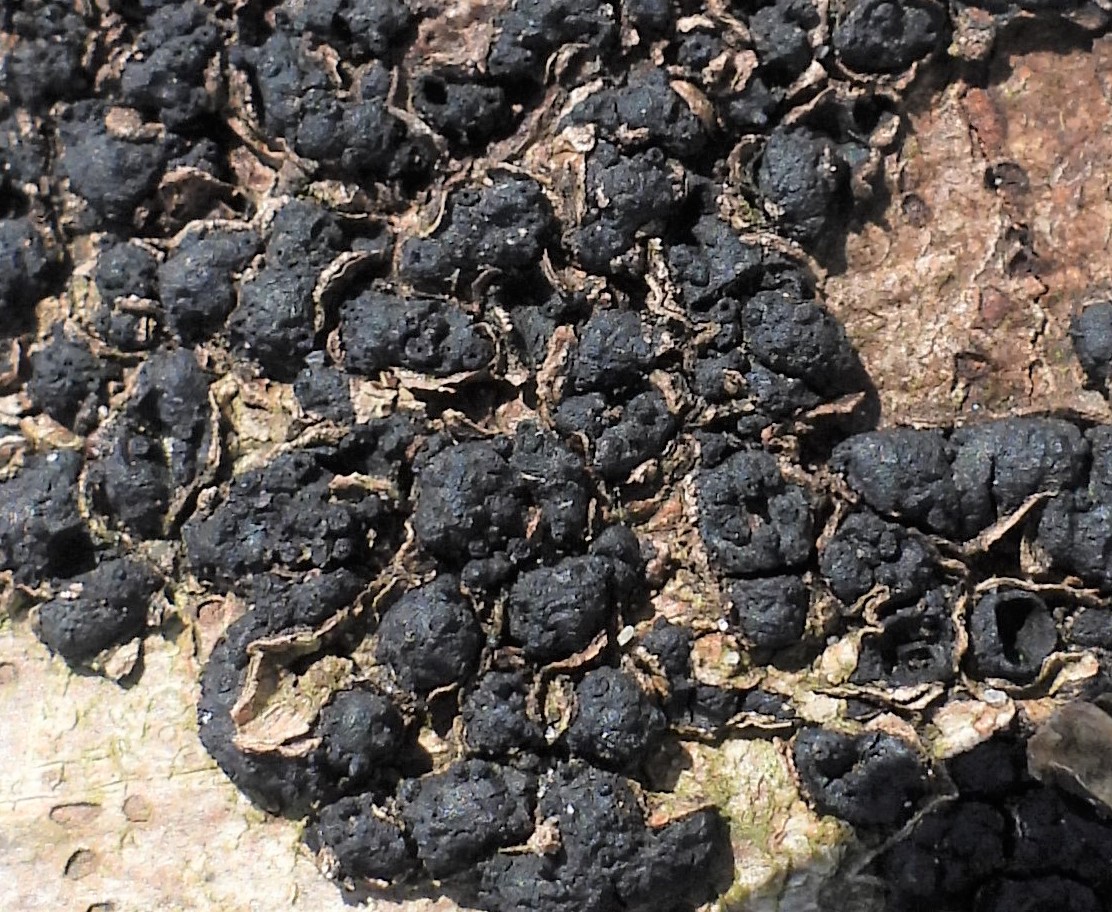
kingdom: Fungi
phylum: Ascomycota
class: Sordariomycetes
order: Xylariales
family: Melogrammataceae
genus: Melogramma
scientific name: Melogramma spiniferum
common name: bøgefod-kulhals
